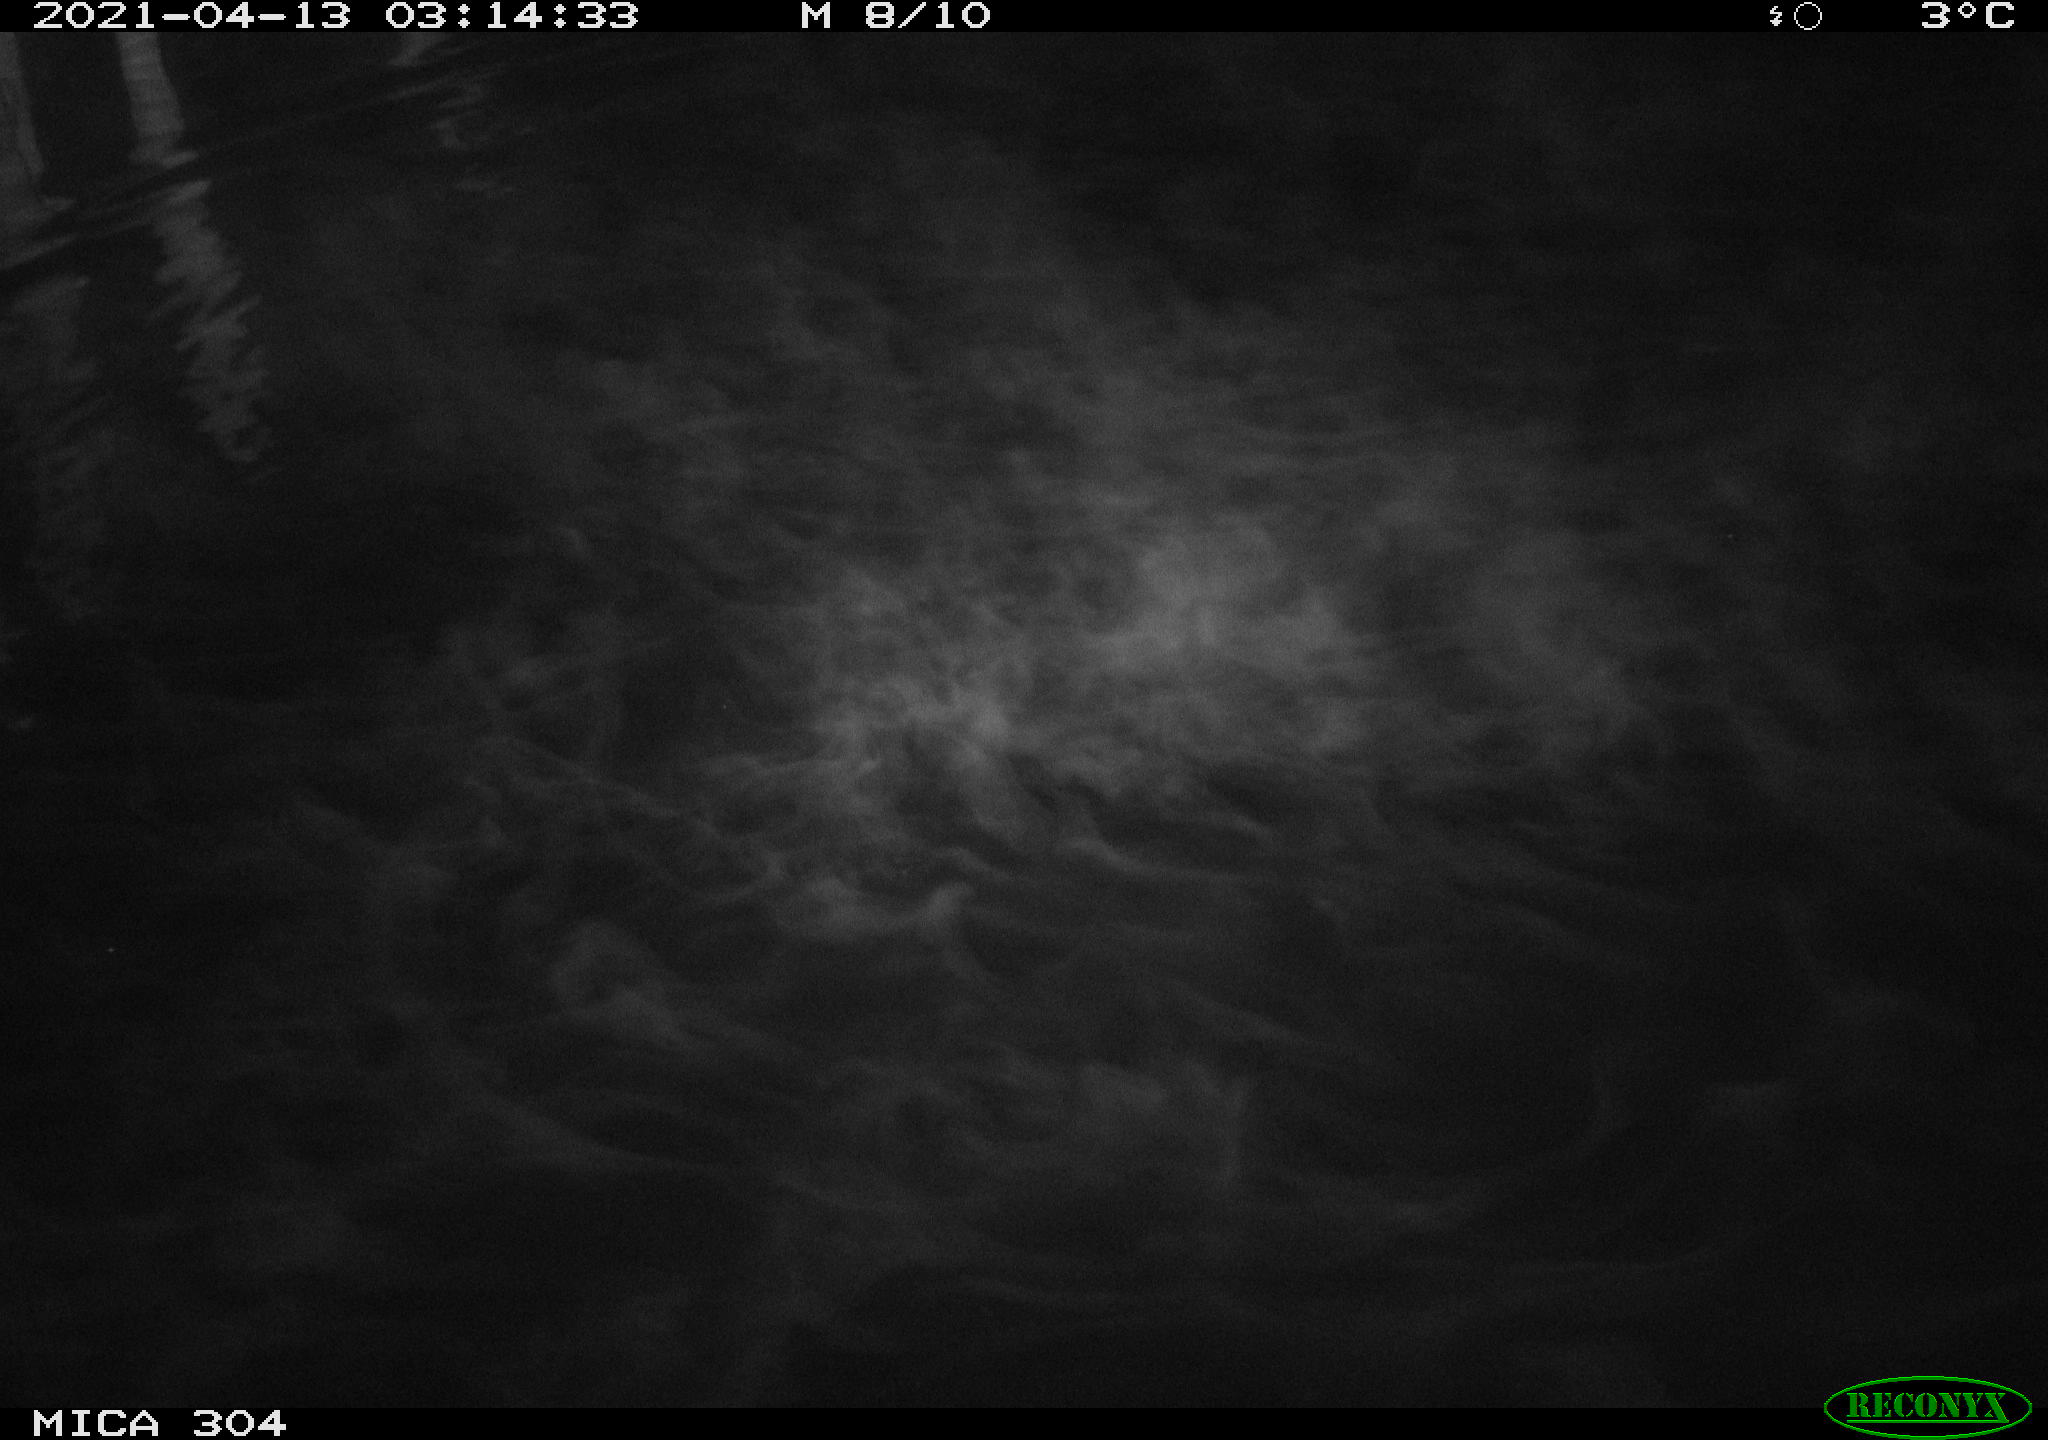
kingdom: Animalia
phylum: Chordata
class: Aves
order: Anseriformes
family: Anatidae
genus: Anas
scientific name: Anas
